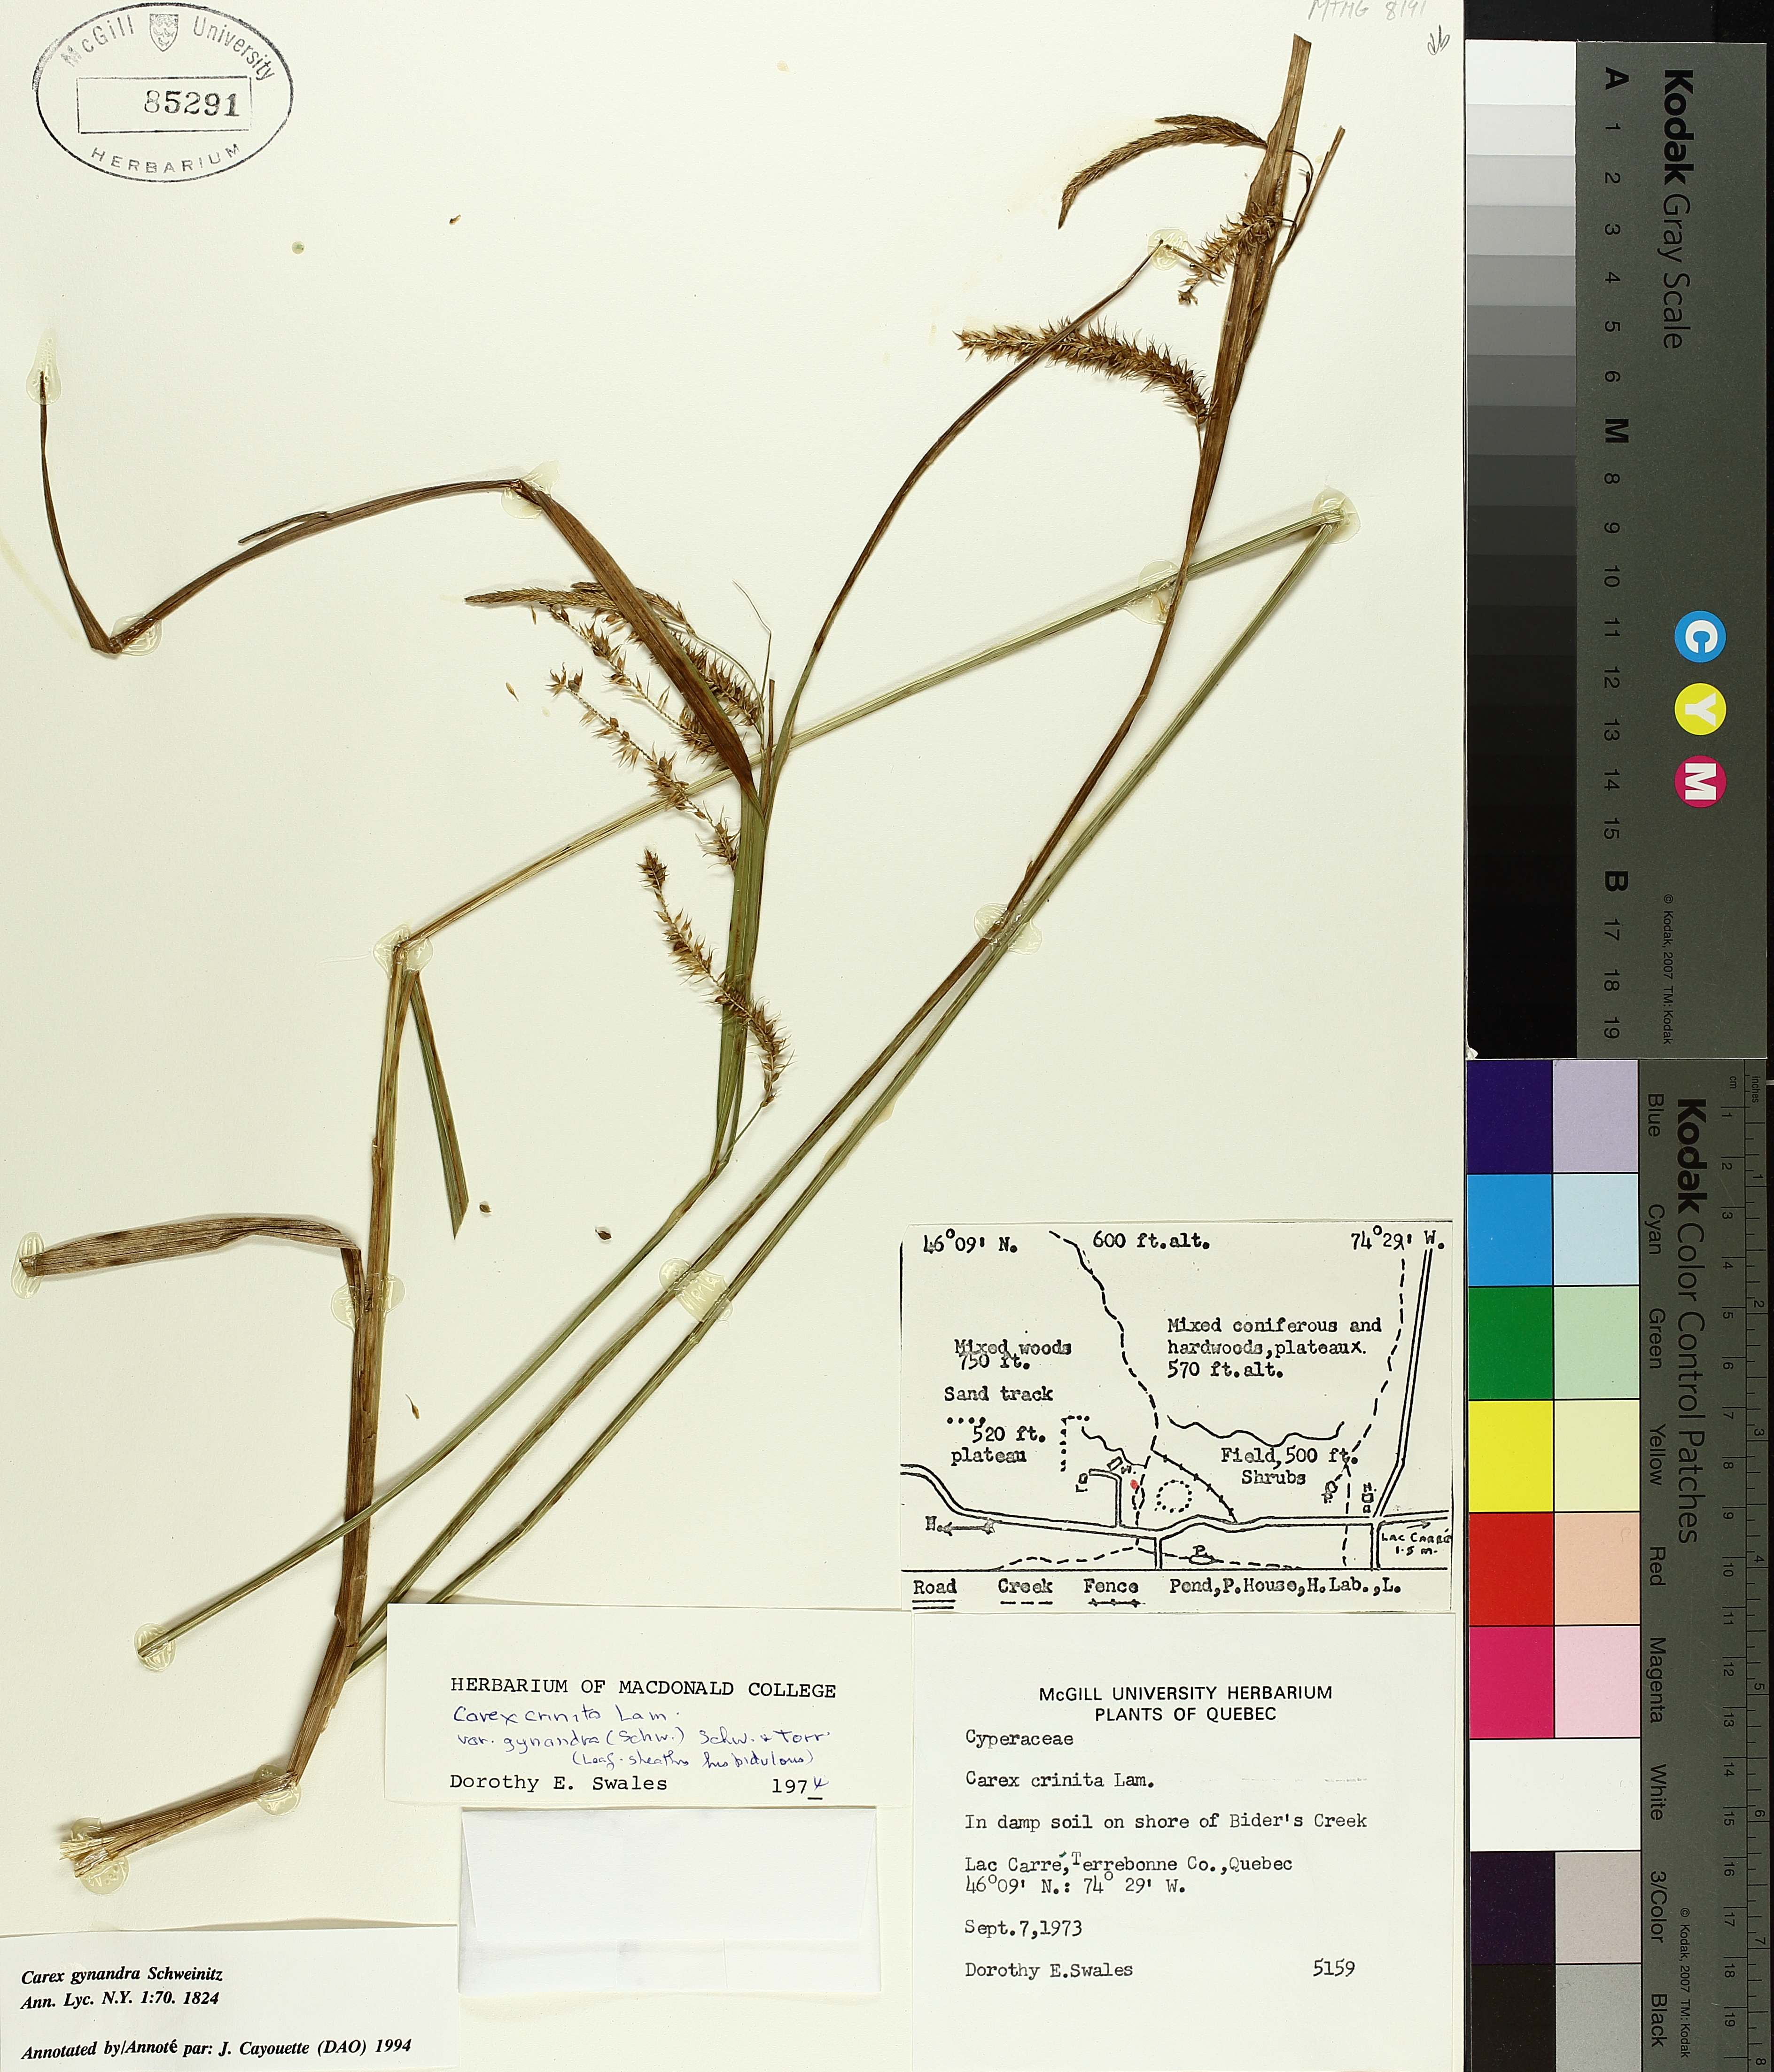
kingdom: Plantae
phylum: Tracheophyta
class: Liliopsida
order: Poales
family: Cyperaceae
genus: Carex
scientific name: Carex gynandra
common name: Nodding sedge
